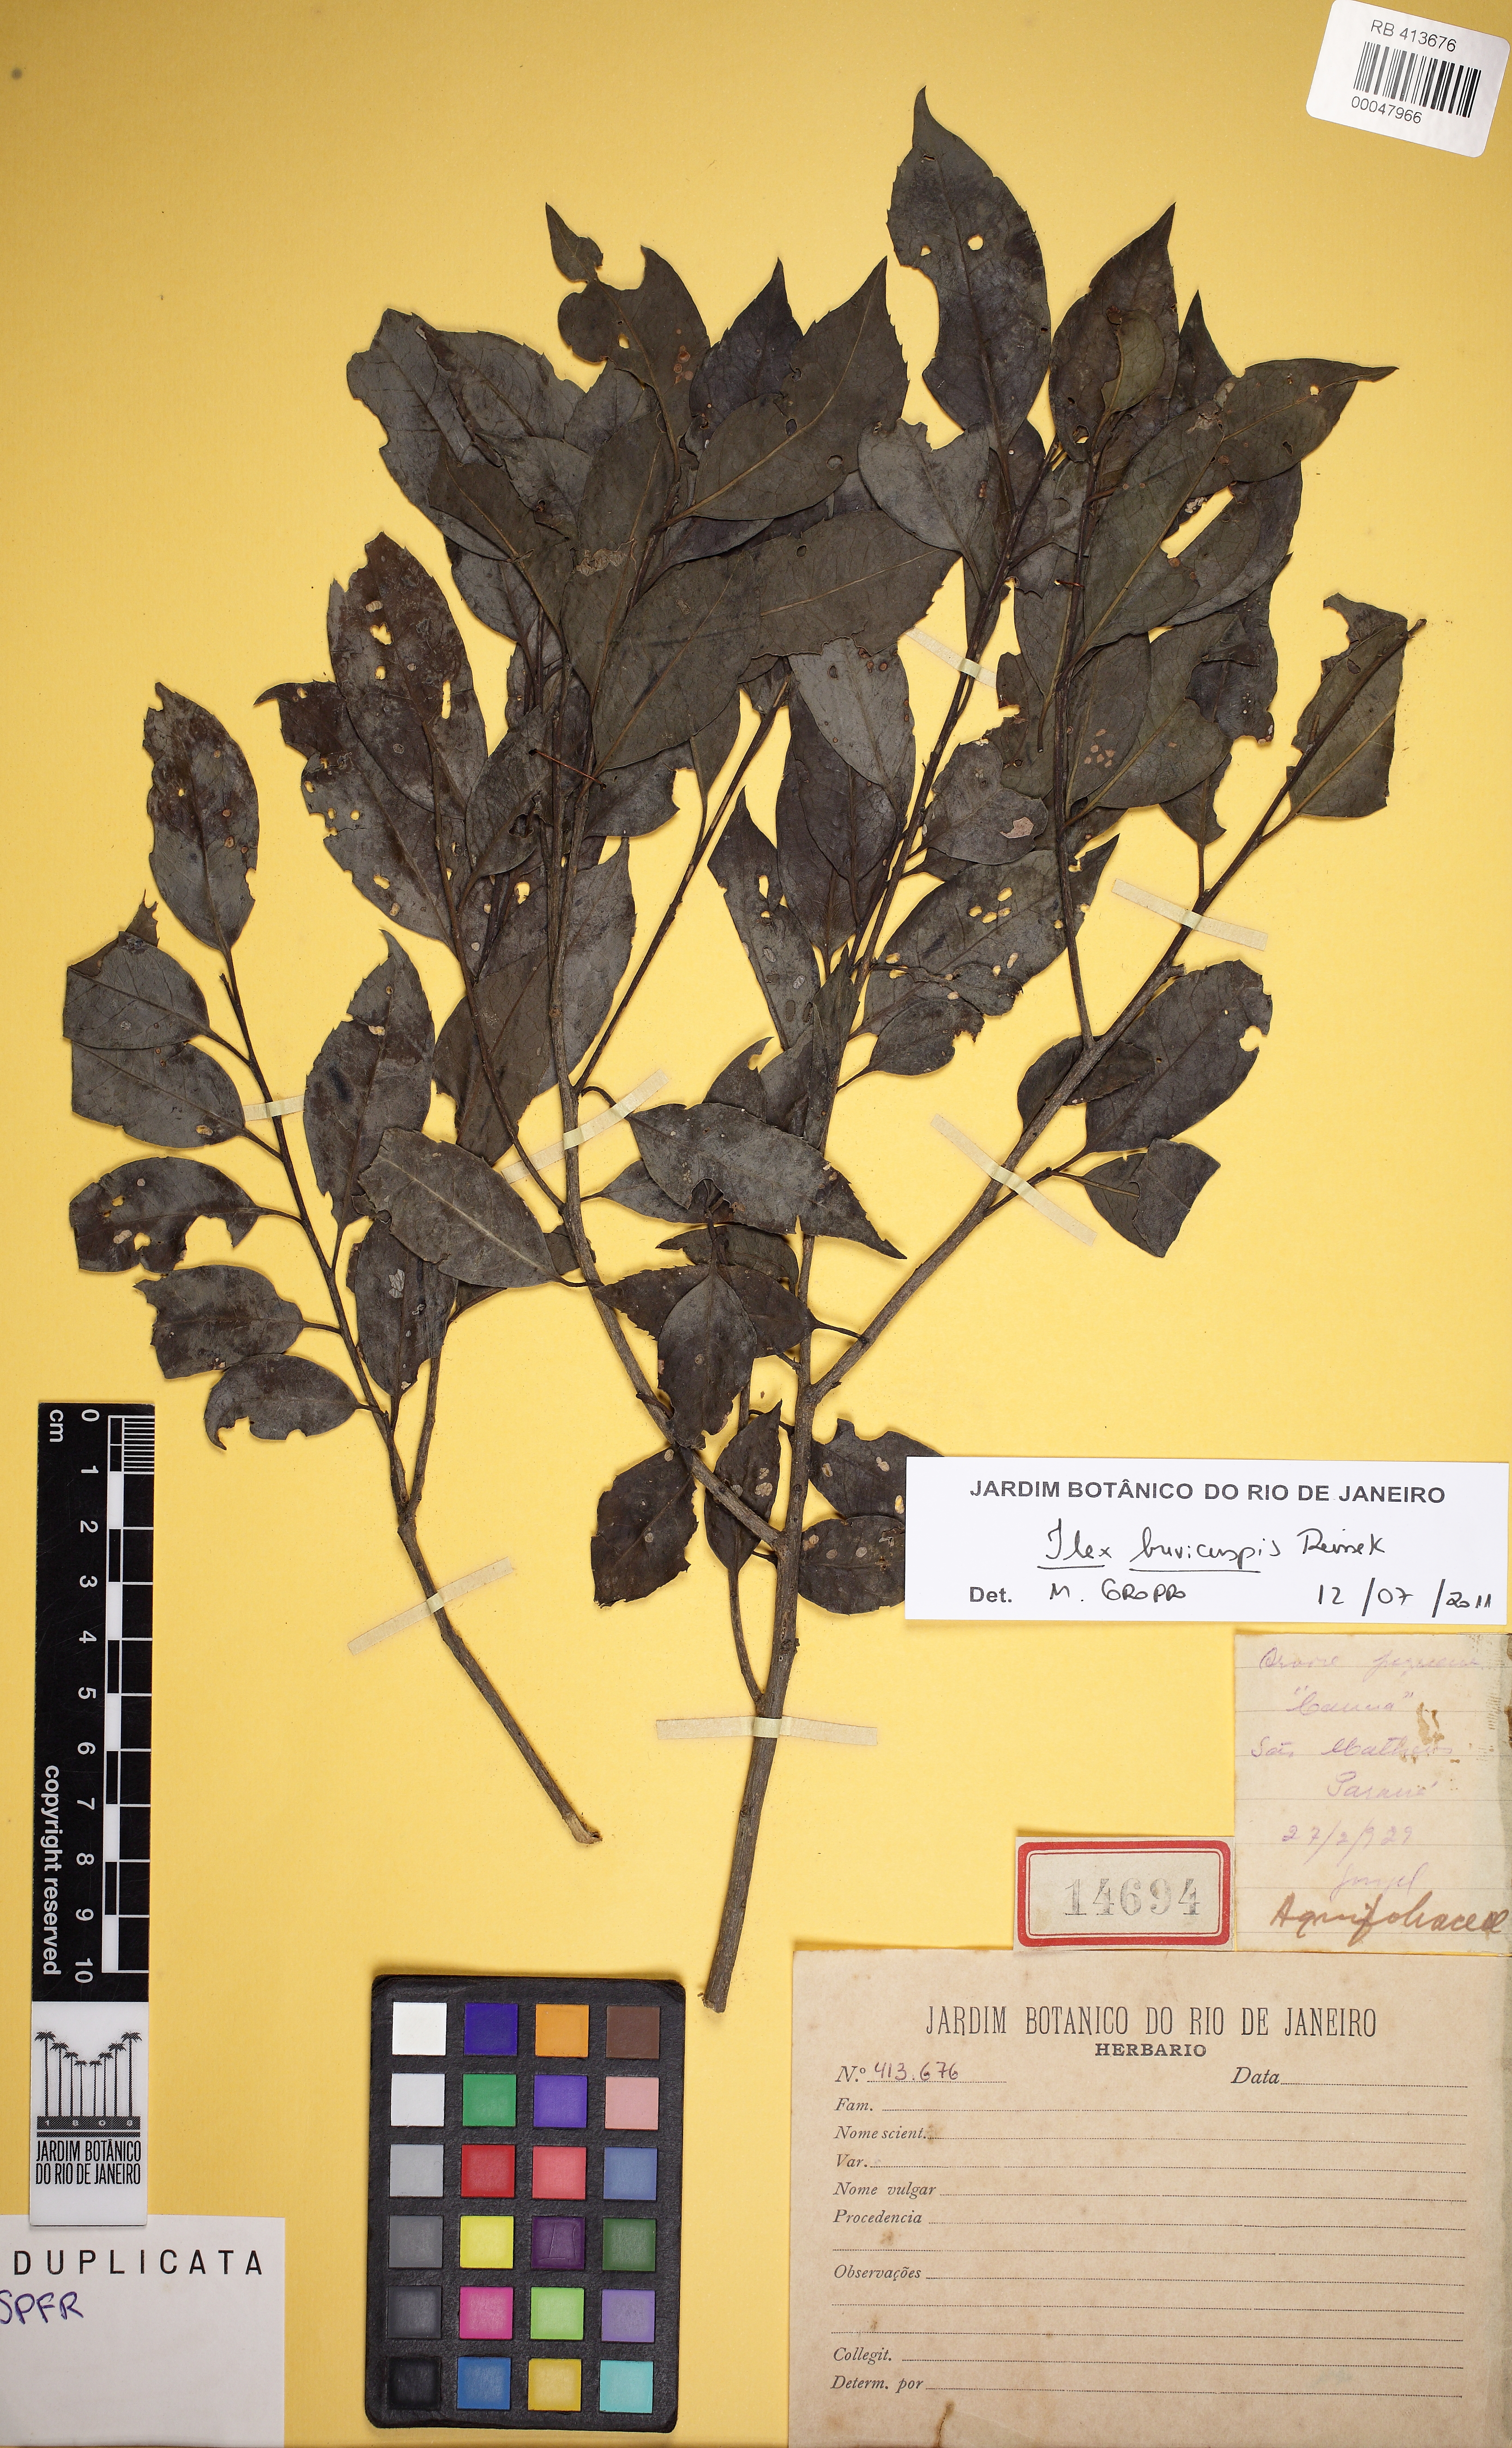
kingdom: Plantae
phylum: Tracheophyta
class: Magnoliopsida
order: Aquifoliales
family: Aquifoliaceae
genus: Ilex
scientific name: Ilex brevicuspis
